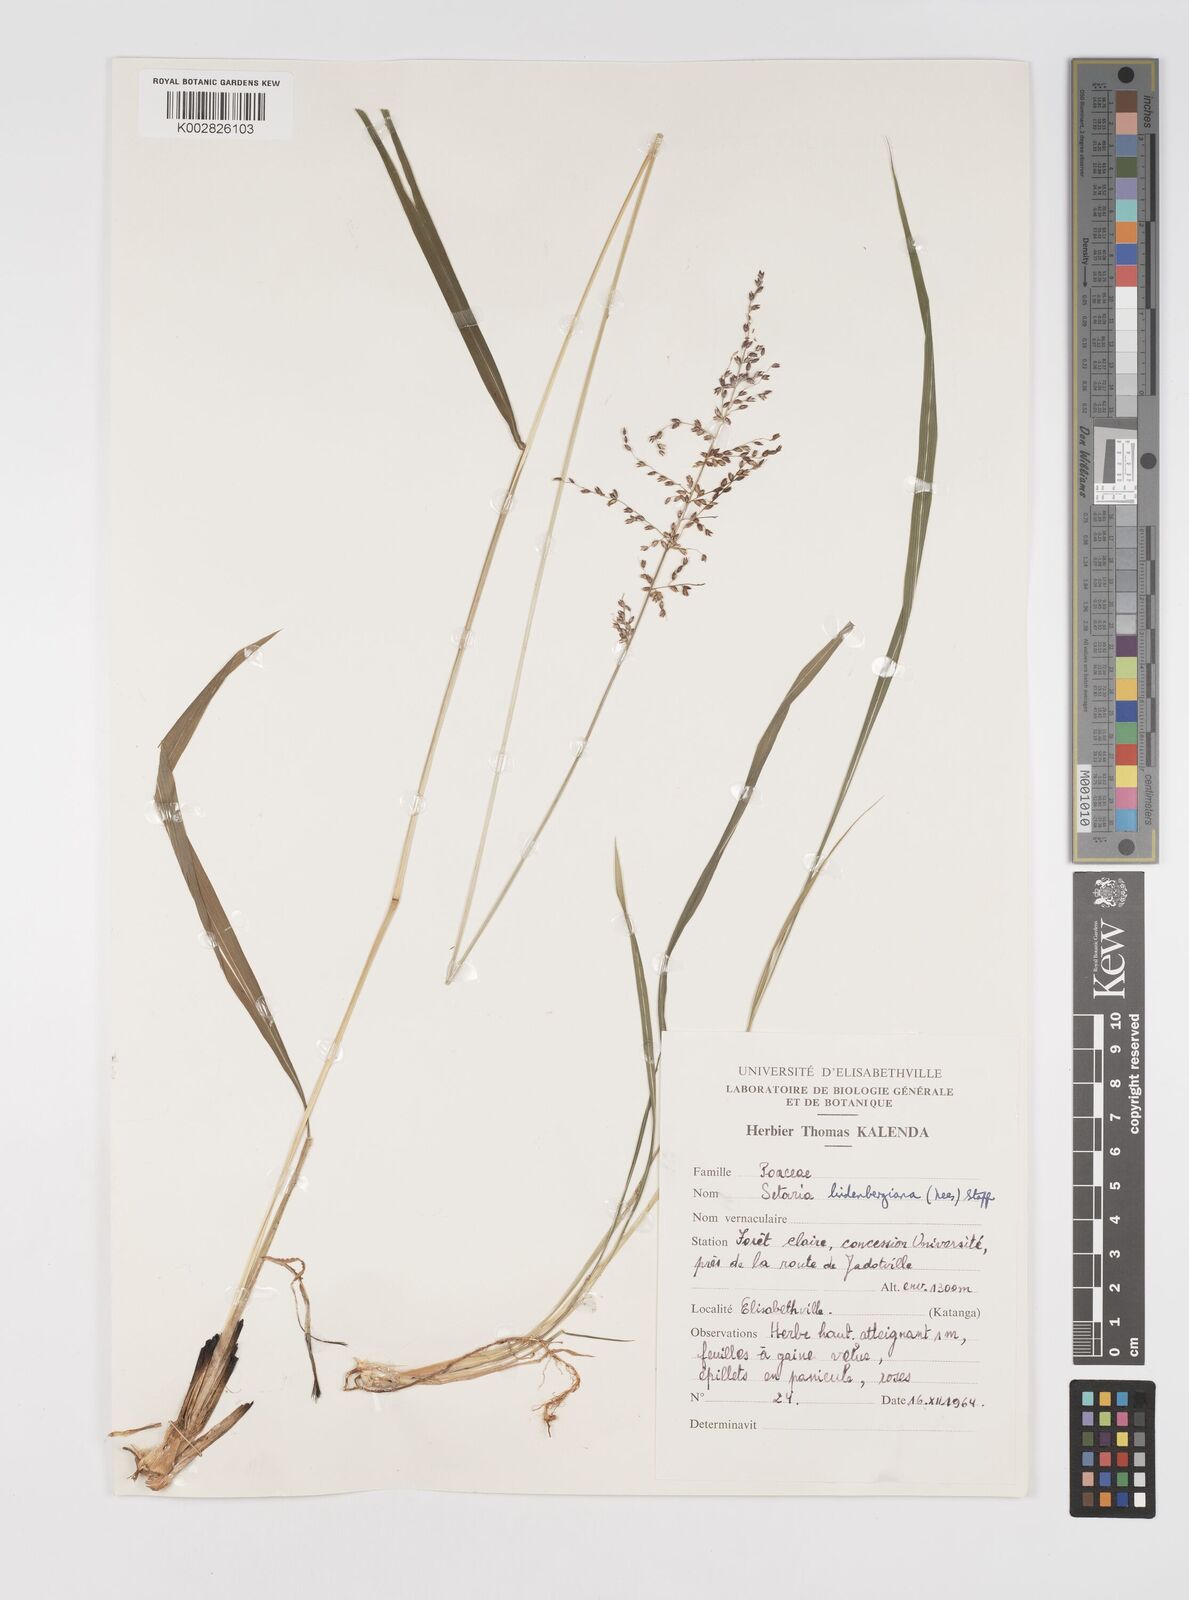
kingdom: Plantae
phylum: Tracheophyta
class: Liliopsida
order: Poales
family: Poaceae
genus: Setaria
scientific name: Setaria lindenbergiana
